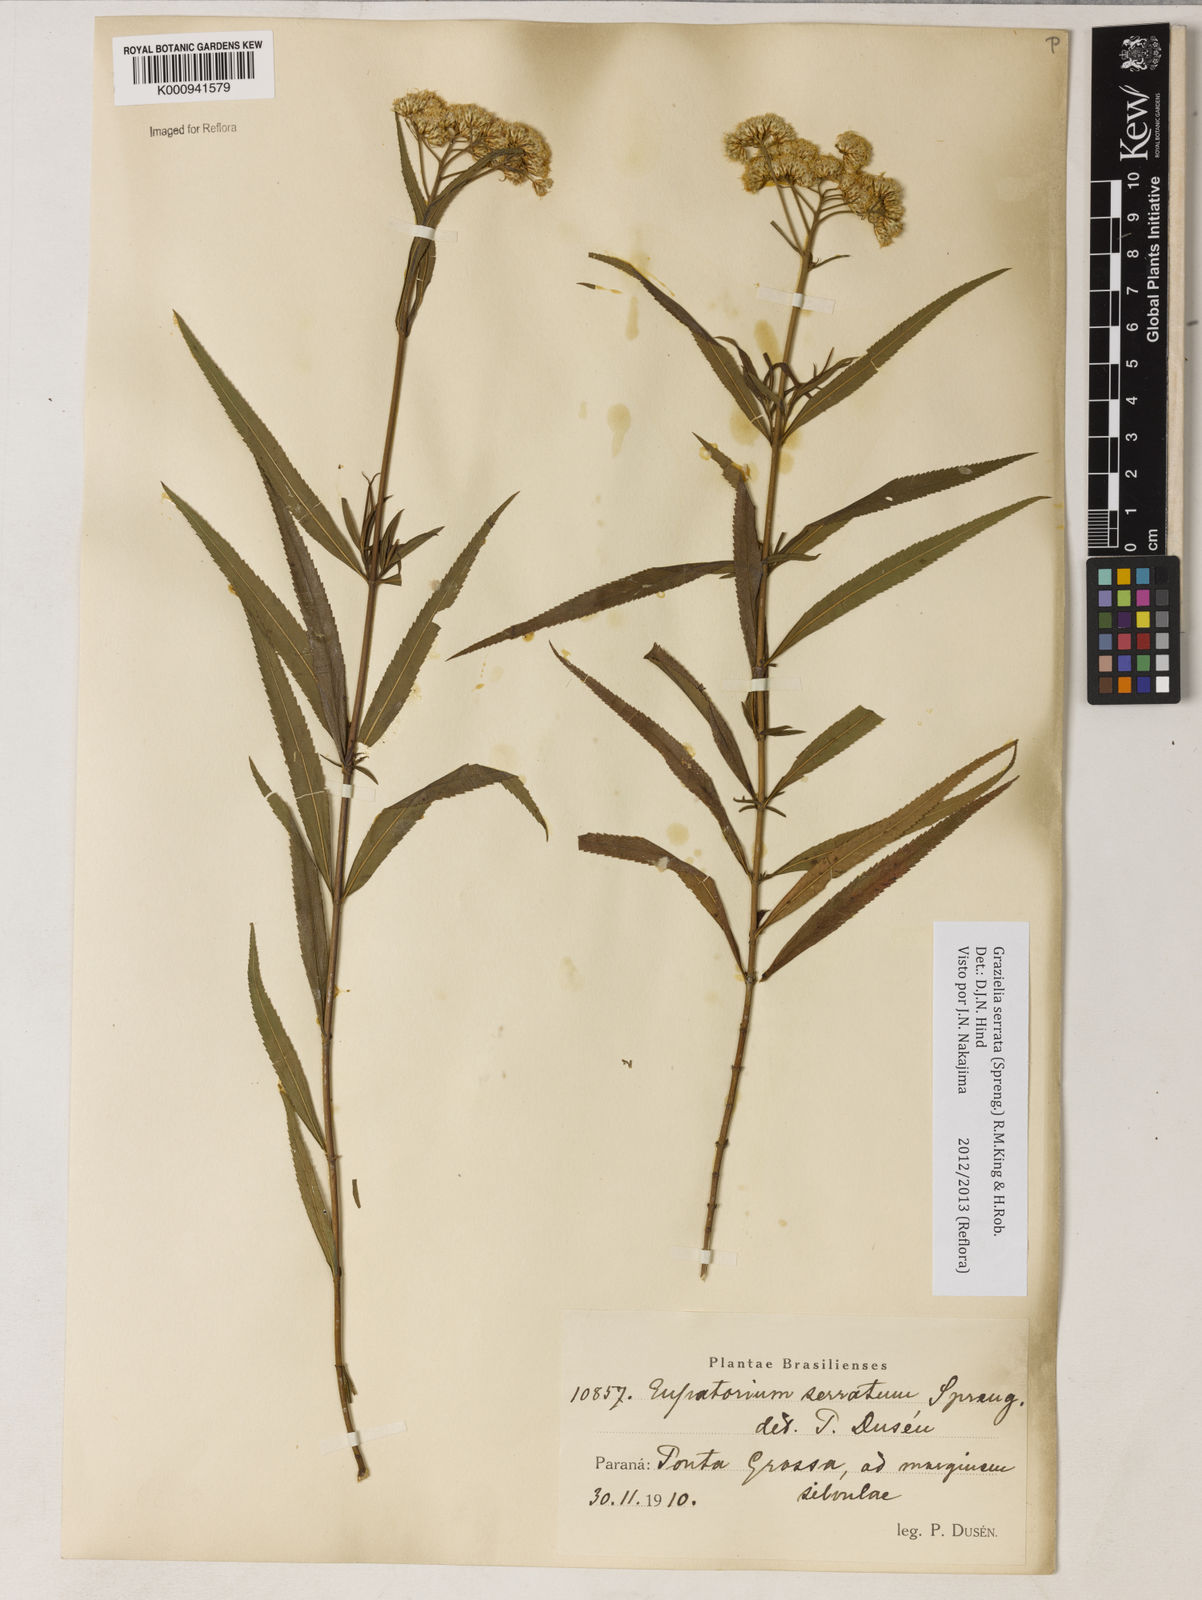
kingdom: Plantae
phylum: Tracheophyta
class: Magnoliopsida
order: Asterales
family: Asteraceae
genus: Grazielia
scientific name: Grazielia serrata
